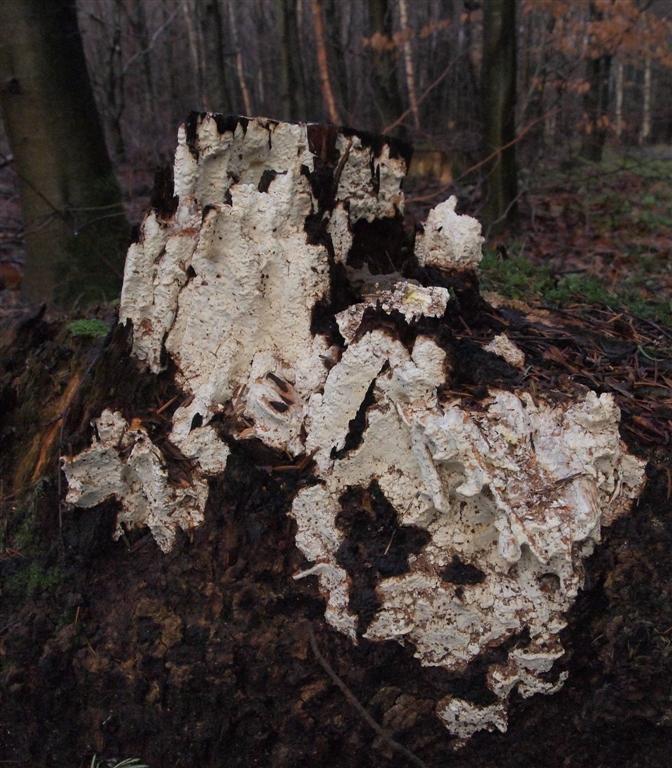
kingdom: Fungi
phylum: Basidiomycota
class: Agaricomycetes
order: Polyporales
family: Fomitopsidaceae
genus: Daedalea
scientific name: Daedalea xantha
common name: gul sejporesvamp
